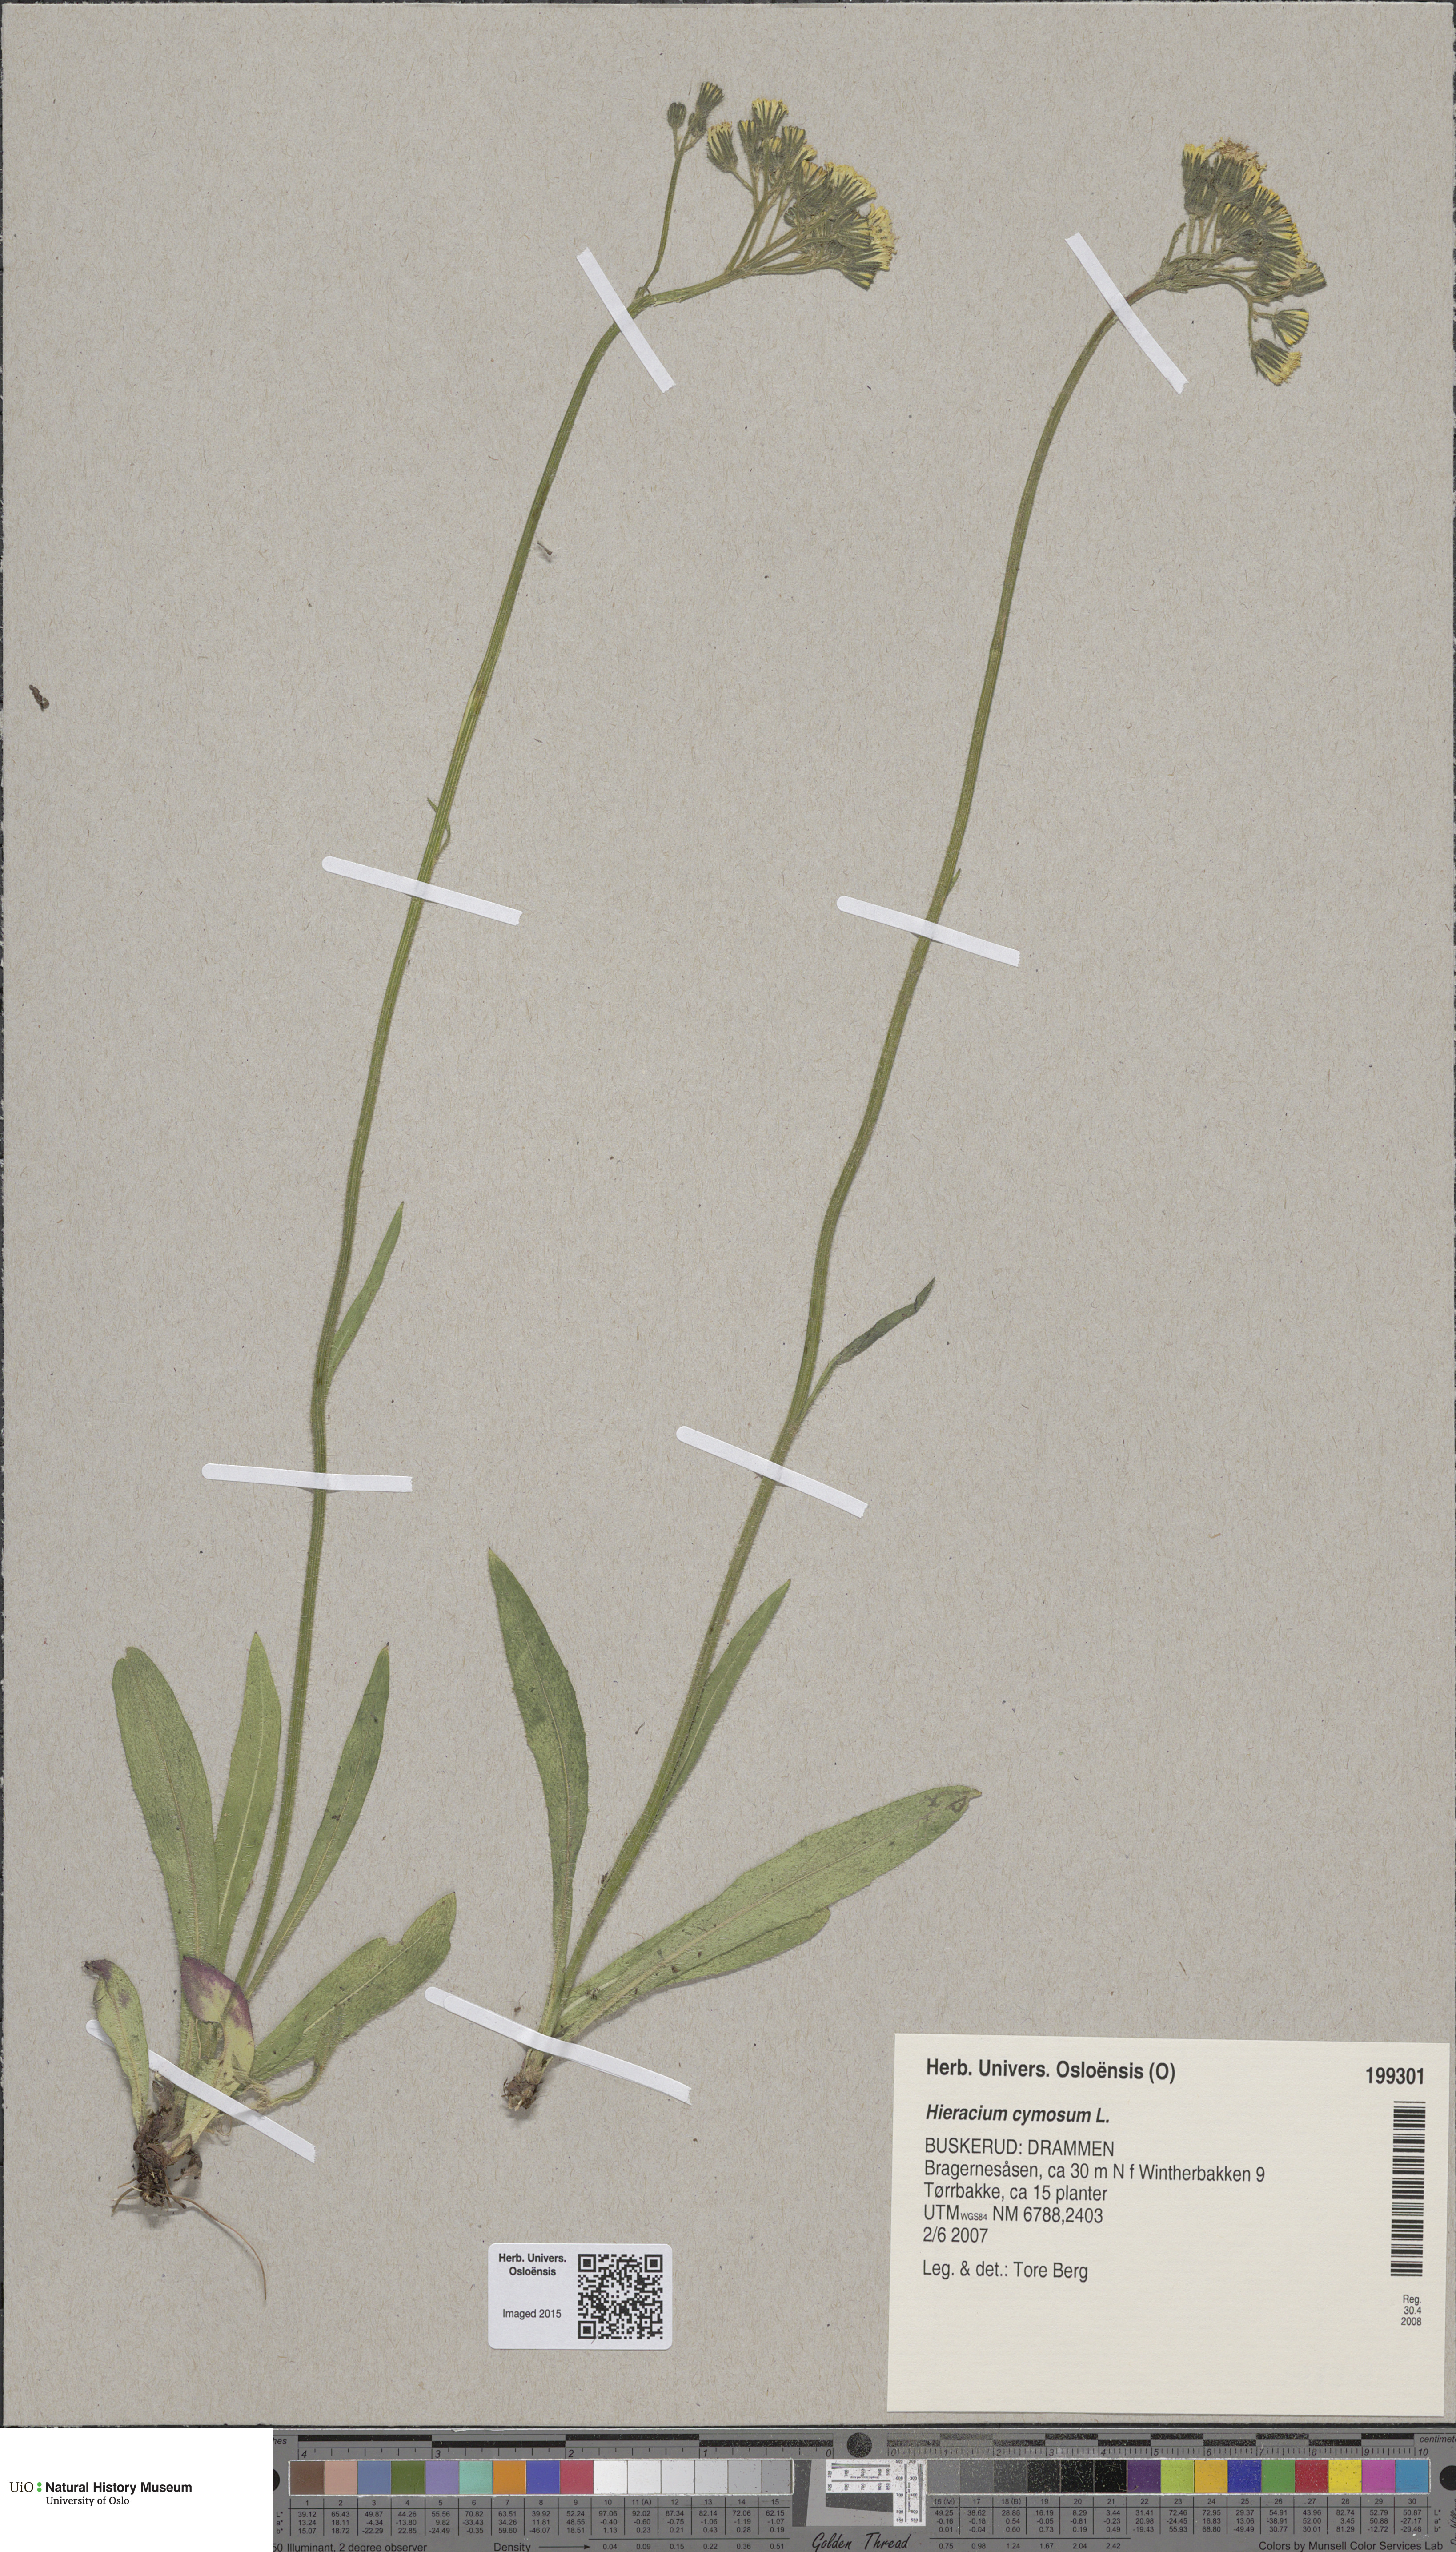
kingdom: Plantae
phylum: Tracheophyta
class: Magnoliopsida
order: Asterales
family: Asteraceae
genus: Pilosella
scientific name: Pilosella cymosa
